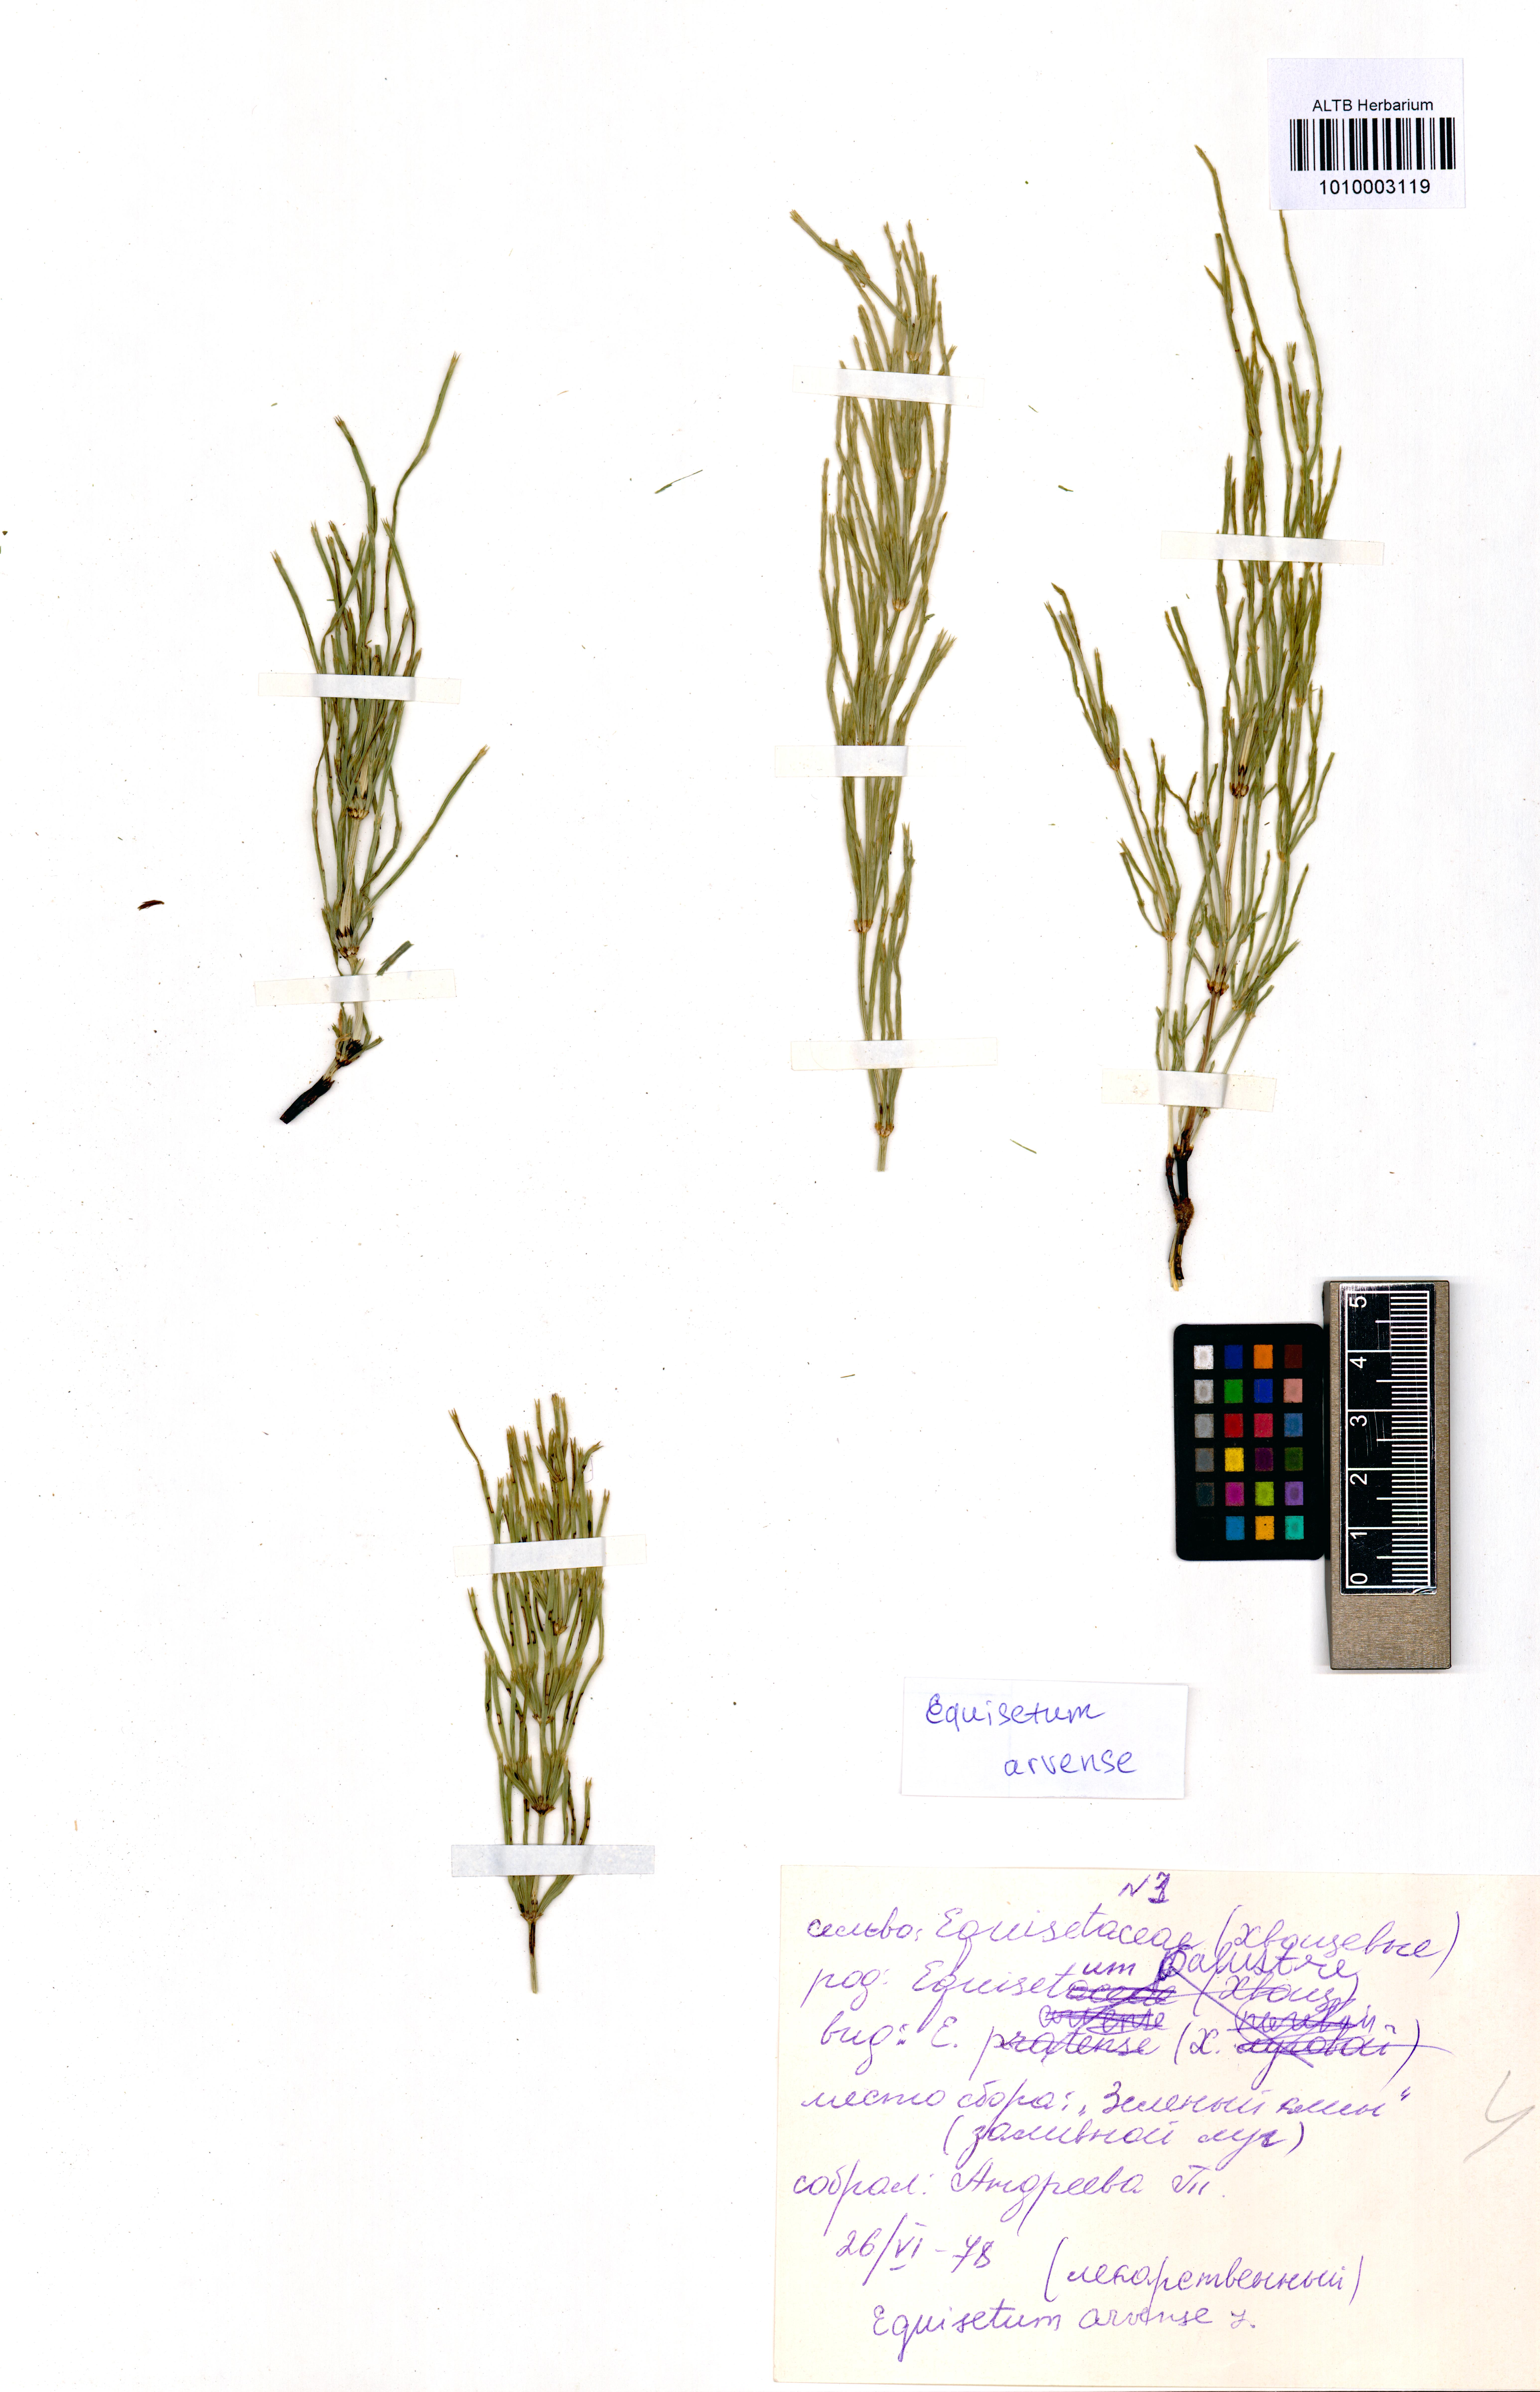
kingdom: Plantae
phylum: Tracheophyta
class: Polypodiopsida
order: Equisetales
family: Equisetaceae
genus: Equisetum
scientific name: Equisetum arvense
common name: Field horsetail
